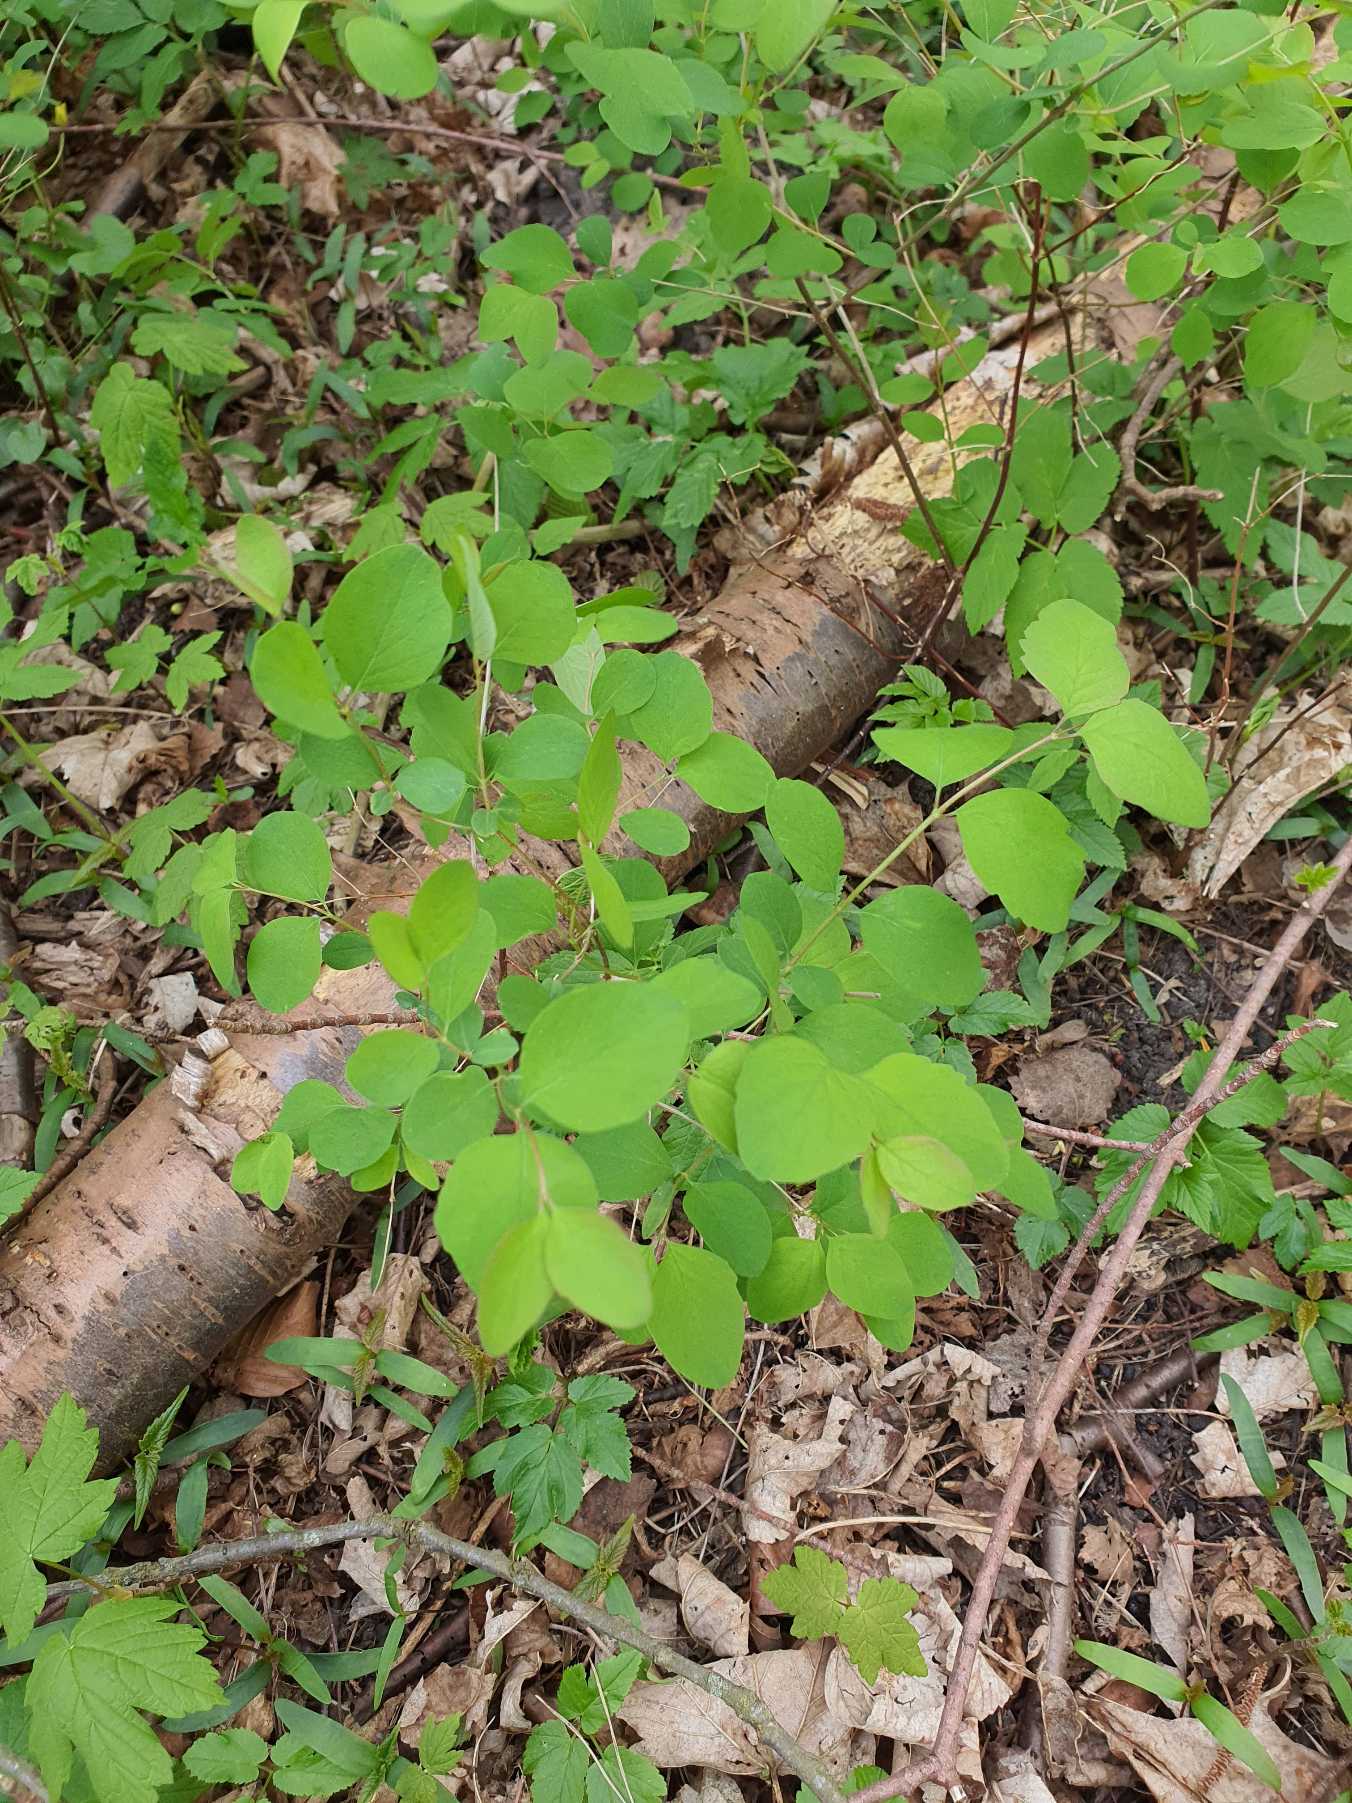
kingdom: Plantae
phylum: Tracheophyta
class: Magnoliopsida
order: Dipsacales
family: Caprifoliaceae
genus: Symphoricarpos
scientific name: Symphoricarpos albus
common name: Almindelig snebær
